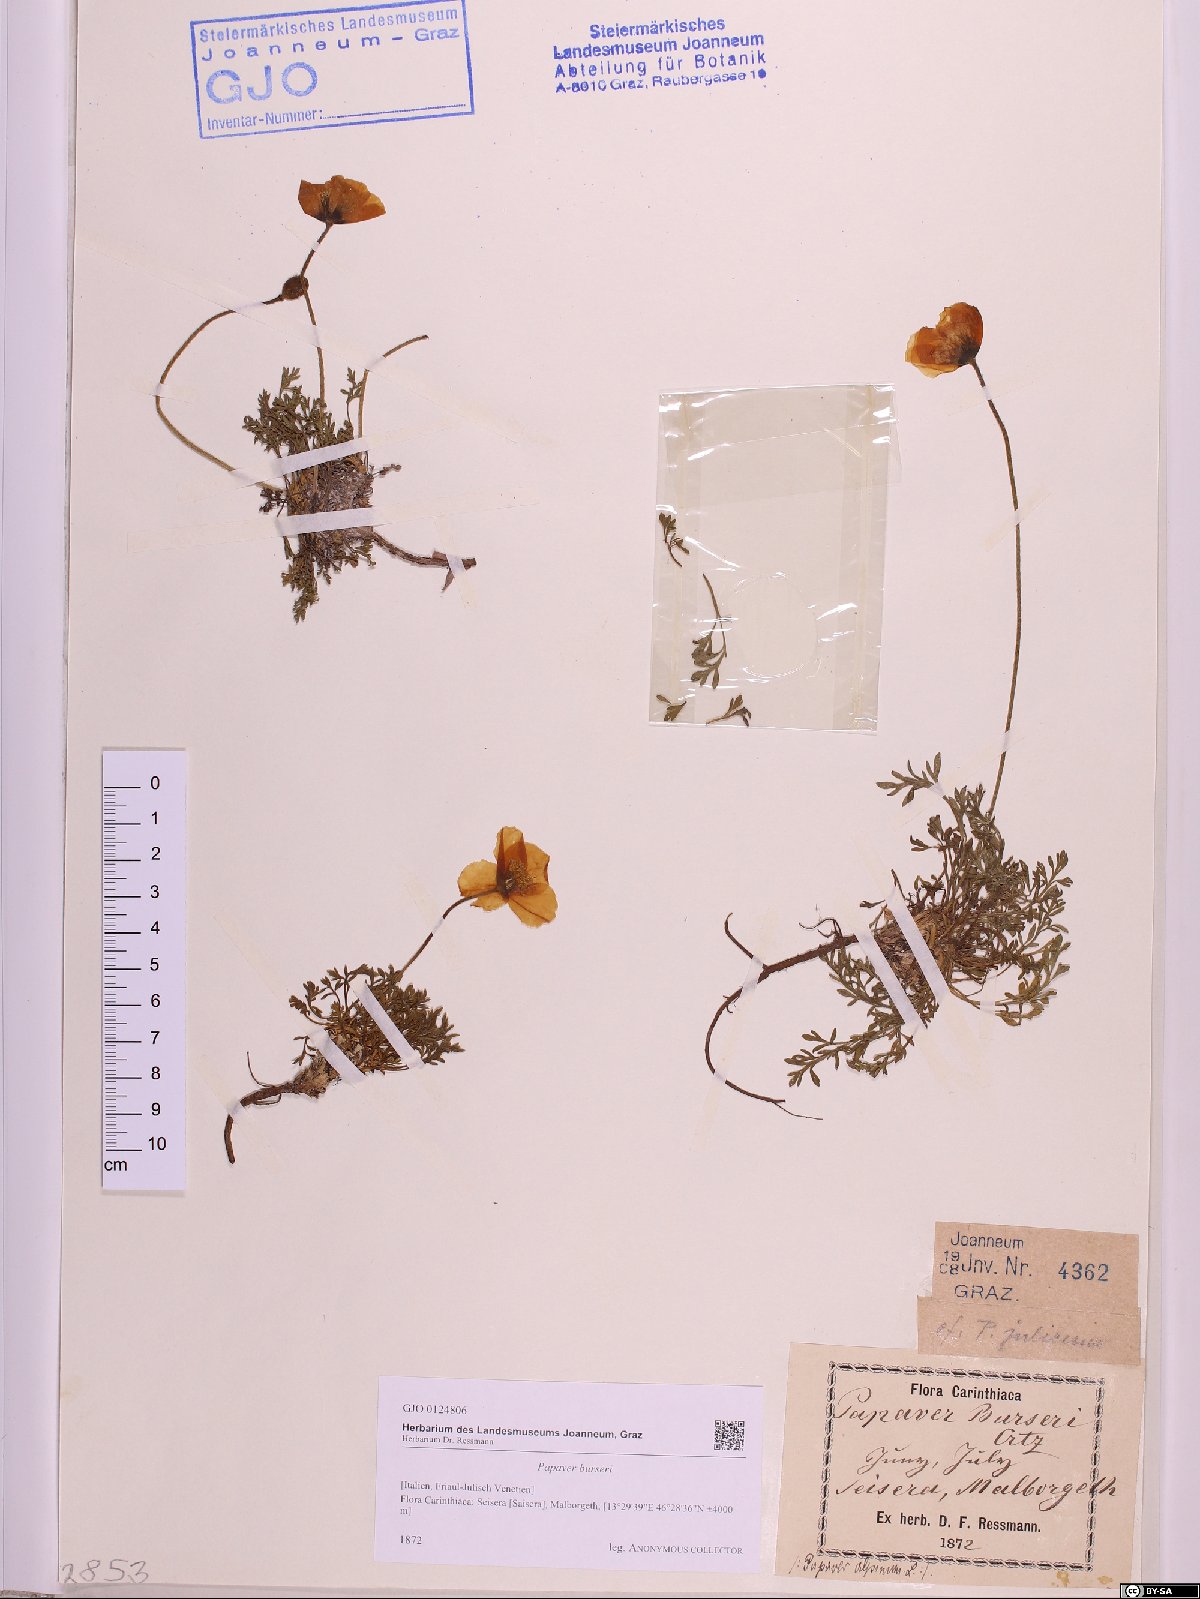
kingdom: Plantae
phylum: Tracheophyta
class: Magnoliopsida
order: Ranunculales
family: Papaveraceae
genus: Papaver
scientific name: Papaver alpinum
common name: Austrian poppy
